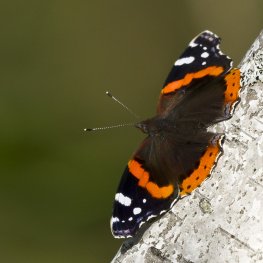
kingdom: Animalia
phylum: Arthropoda
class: Insecta
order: Lepidoptera
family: Nymphalidae
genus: Vanessa
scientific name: Vanessa atalanta
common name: Red Admiral
